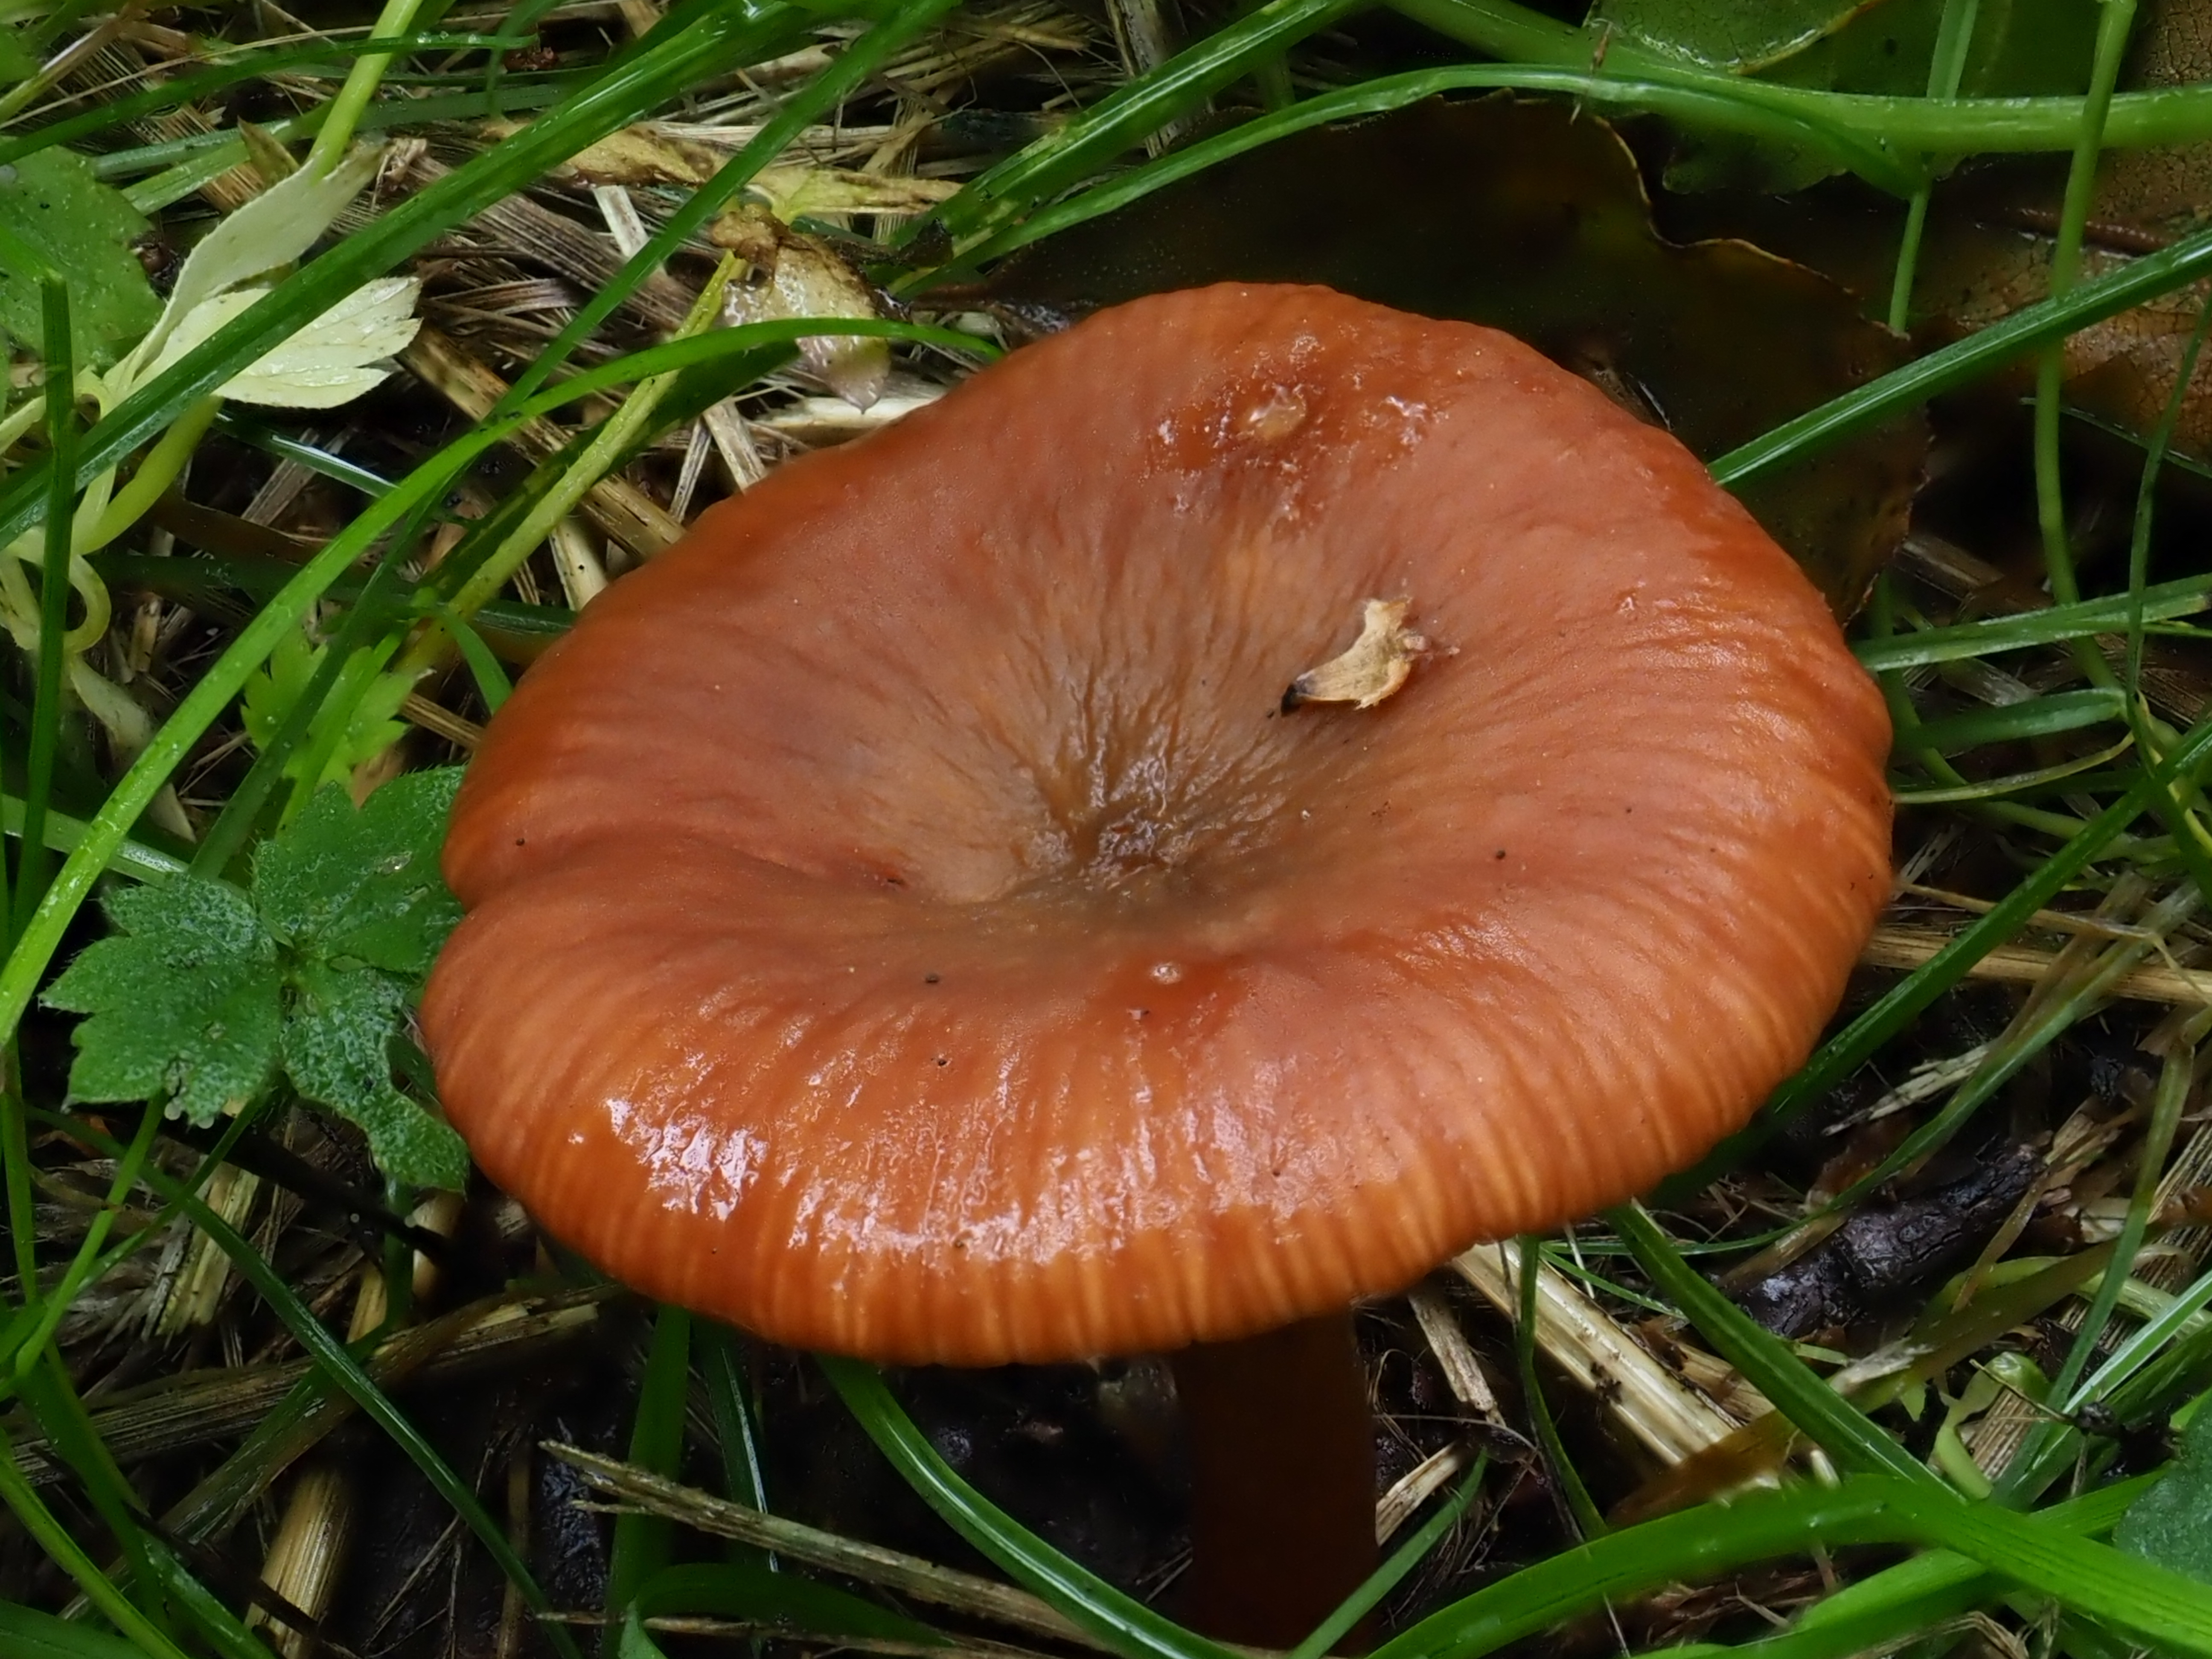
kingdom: Fungi
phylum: Basidiomycota
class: Agaricomycetes
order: Russulales
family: Russulaceae
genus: Lactarius
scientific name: Lactarius
